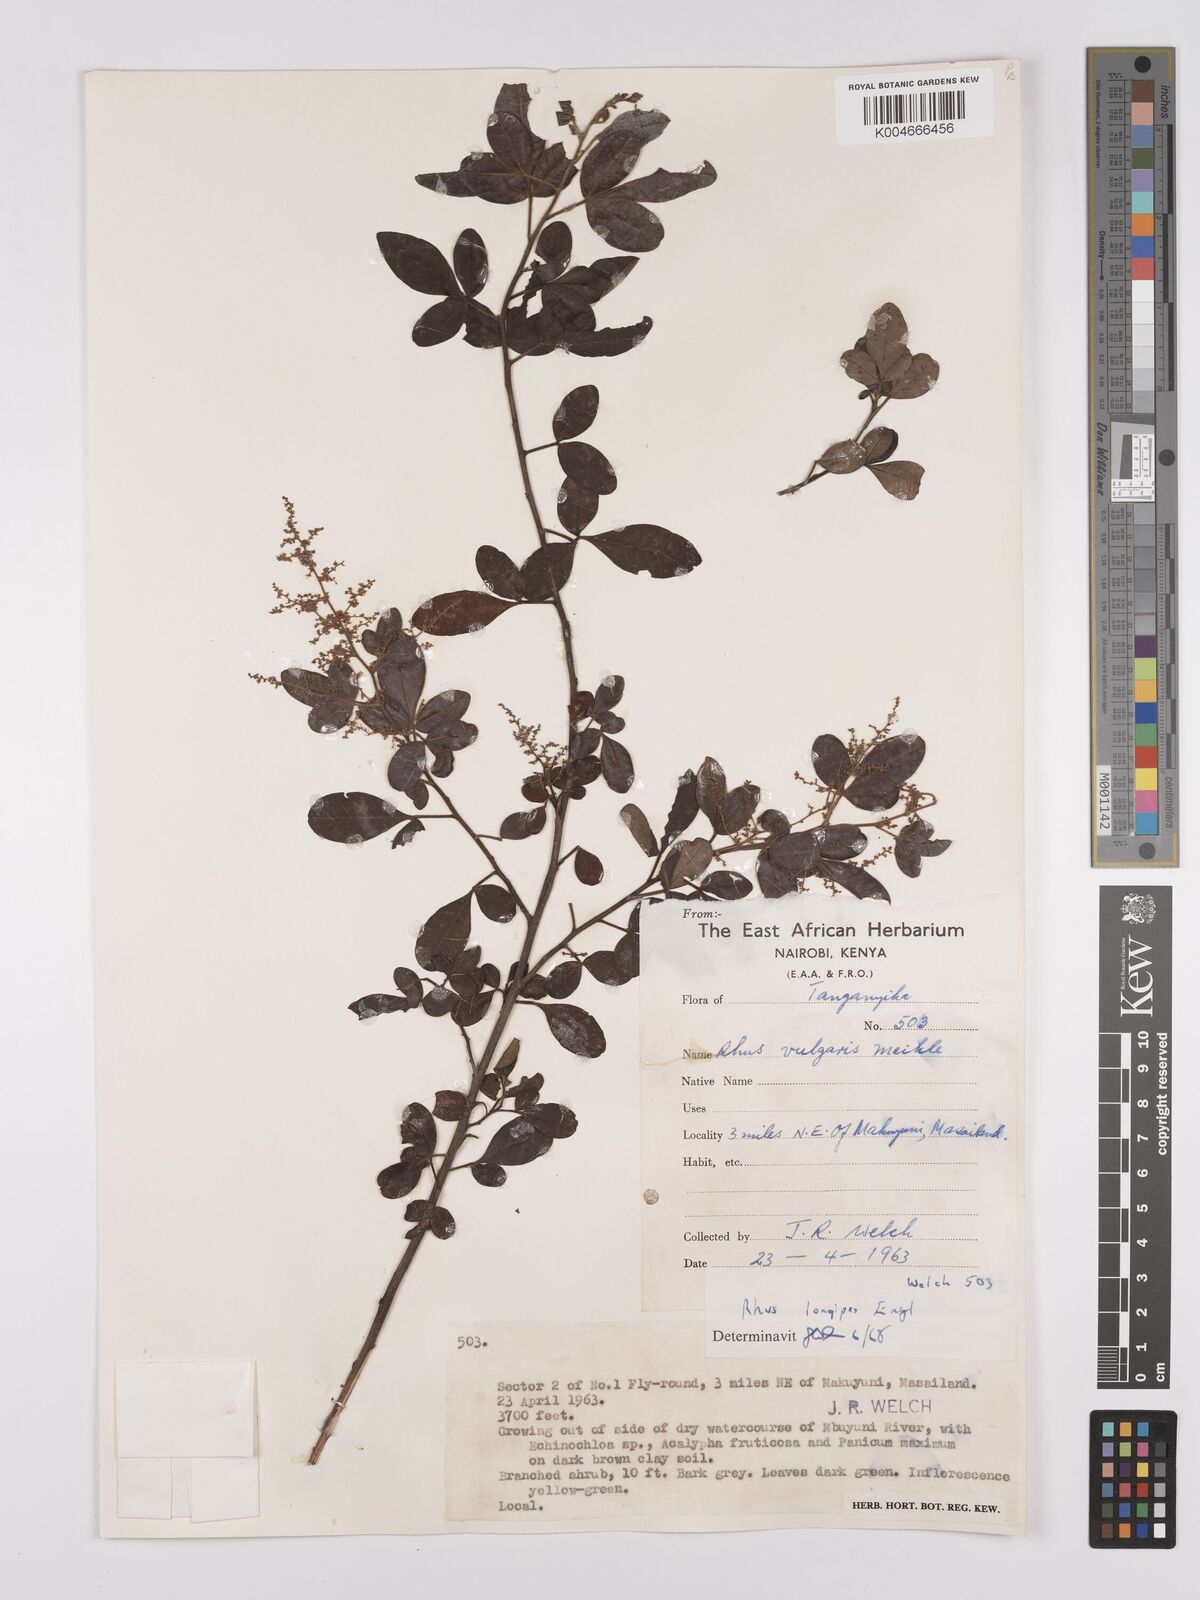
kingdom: Plantae
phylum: Tracheophyta
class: Magnoliopsida
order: Sapindales
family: Anacardiaceae
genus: Searsia
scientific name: Searsia quartiniana
